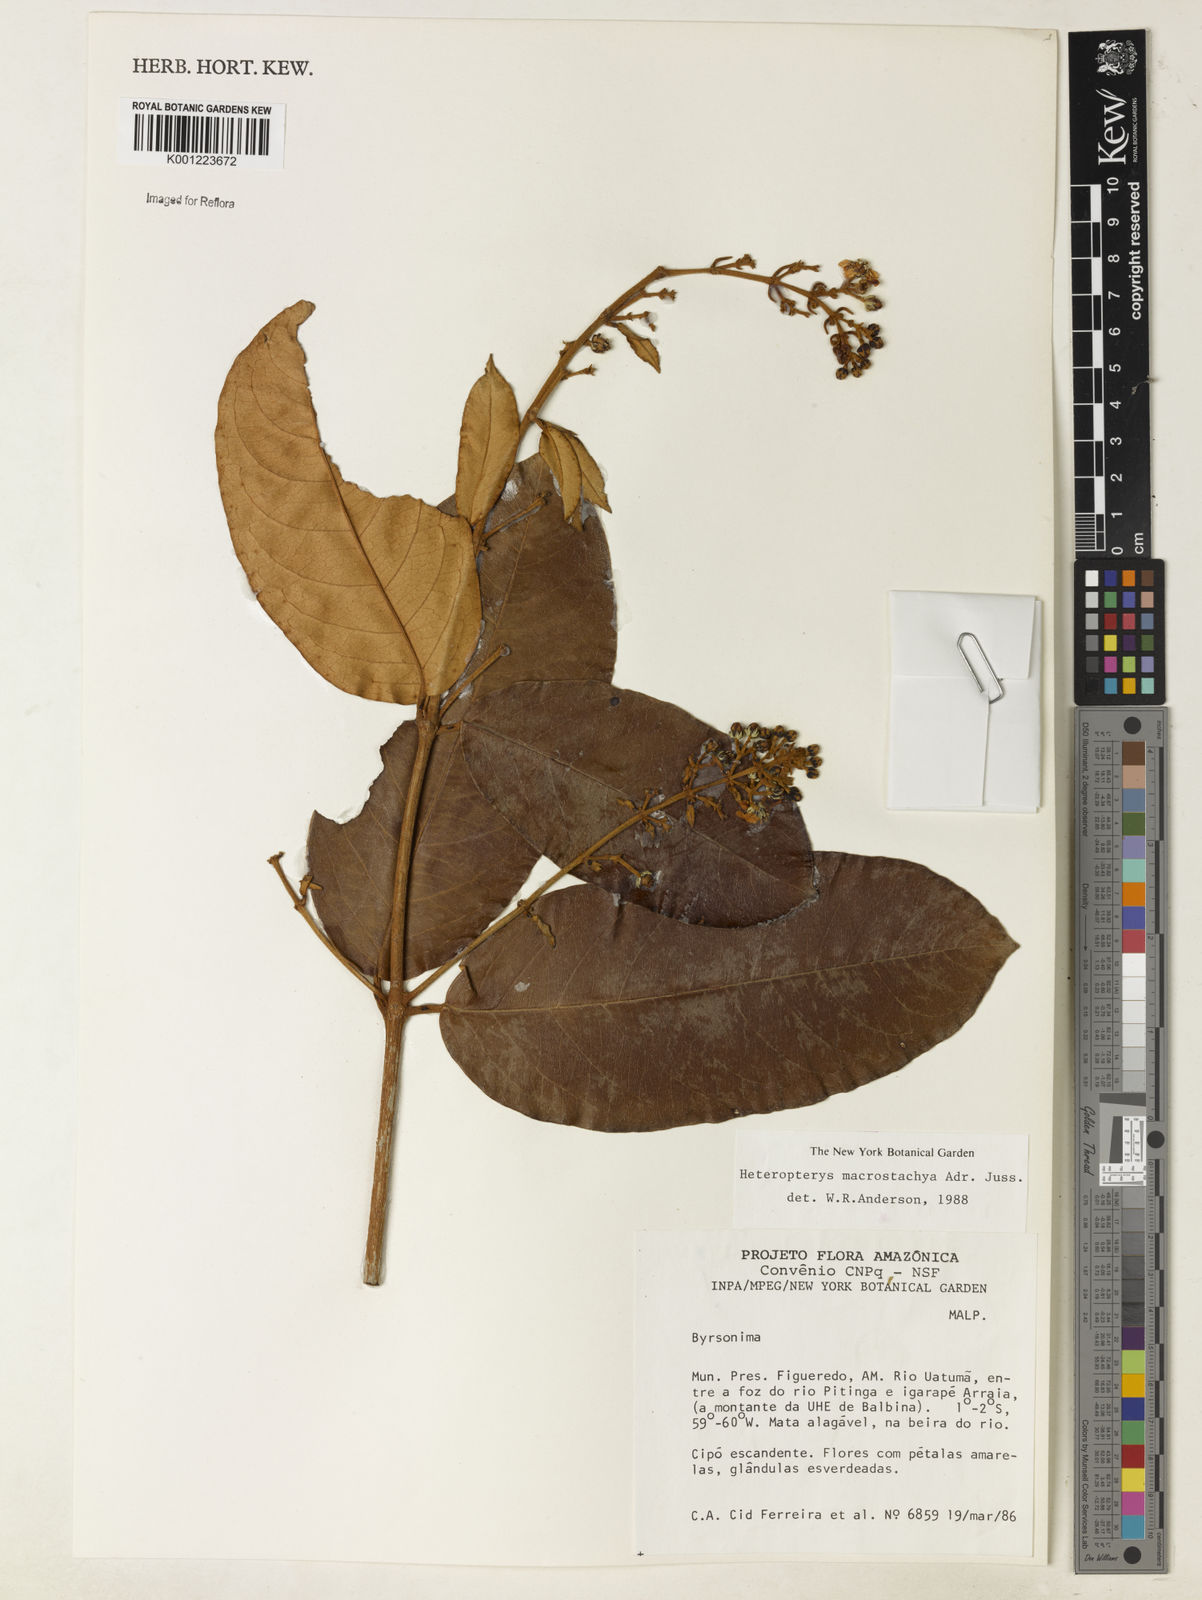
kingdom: Plantae
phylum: Tracheophyta
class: Magnoliopsida
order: Malpighiales
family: Malpighiaceae
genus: Heteropterys
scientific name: Heteropterys macrostachya
